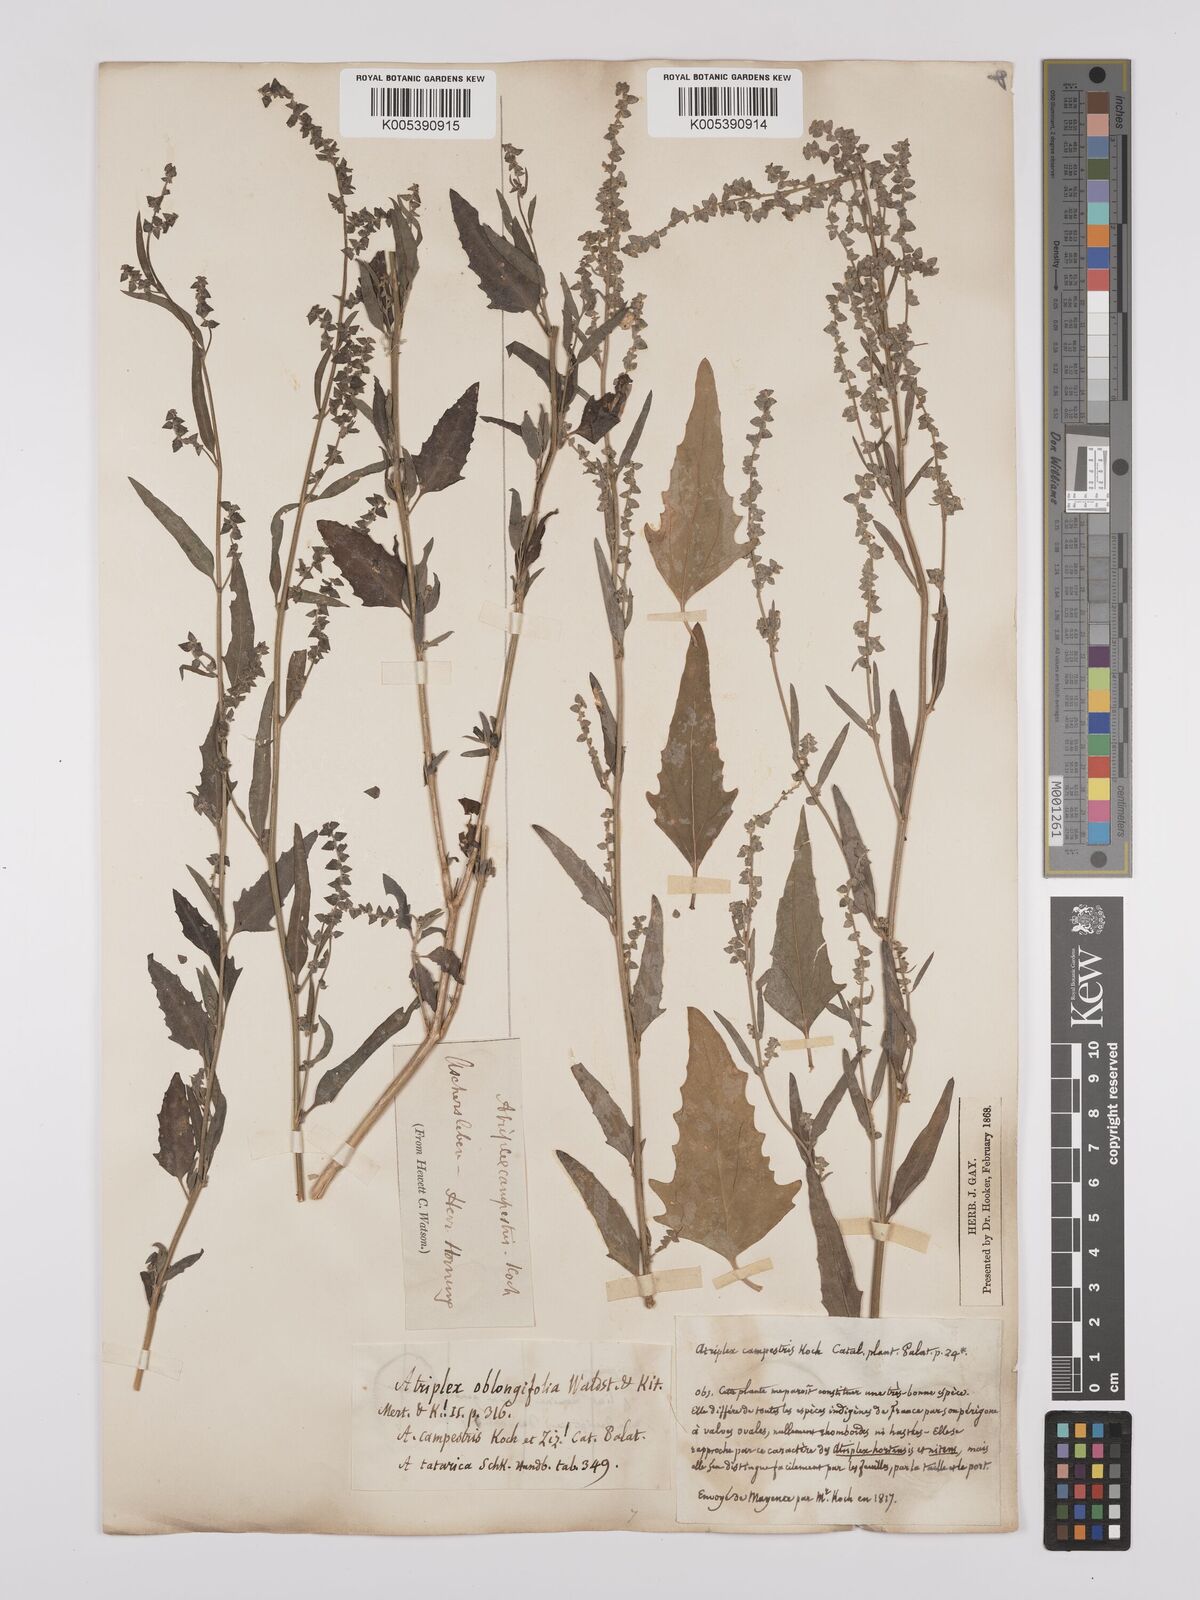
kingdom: Plantae
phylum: Tracheophyta
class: Magnoliopsida
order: Caryophyllales
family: Amaranthaceae
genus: Atriplex
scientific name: Atriplex
